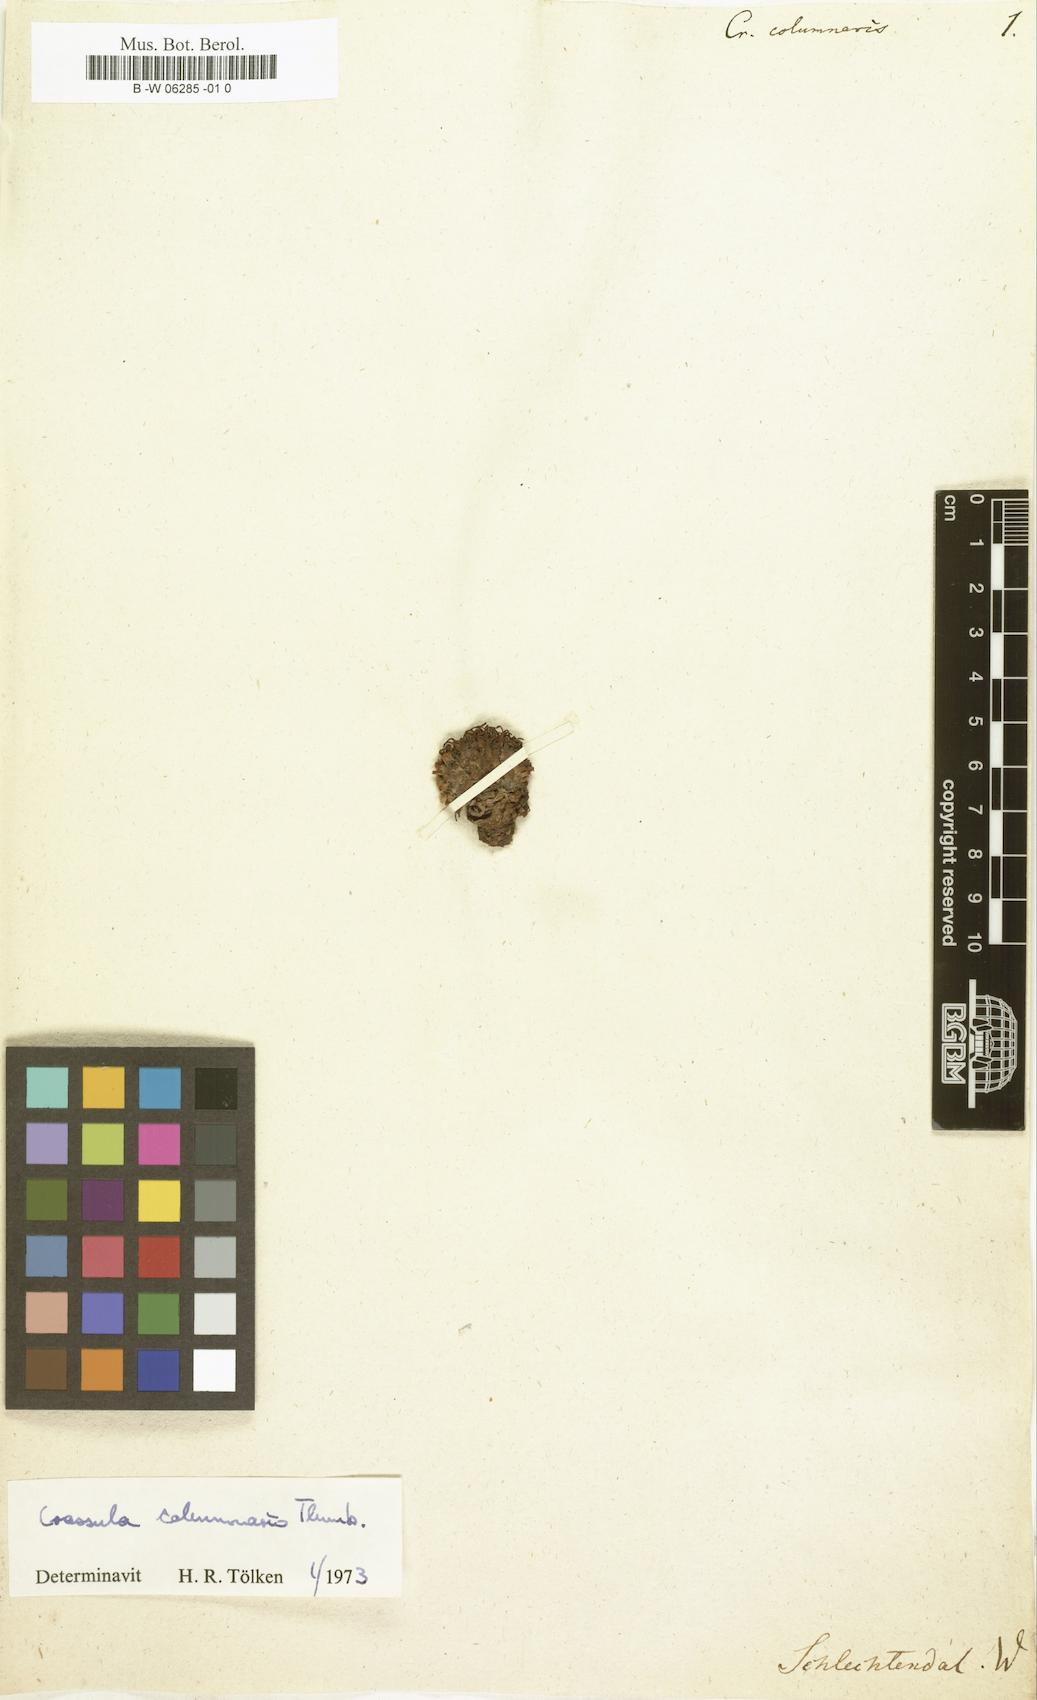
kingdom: Plantae
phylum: Tracheophyta
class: Magnoliopsida
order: Saxifragales
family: Crassulaceae
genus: Crassula
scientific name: Crassula columnaris
